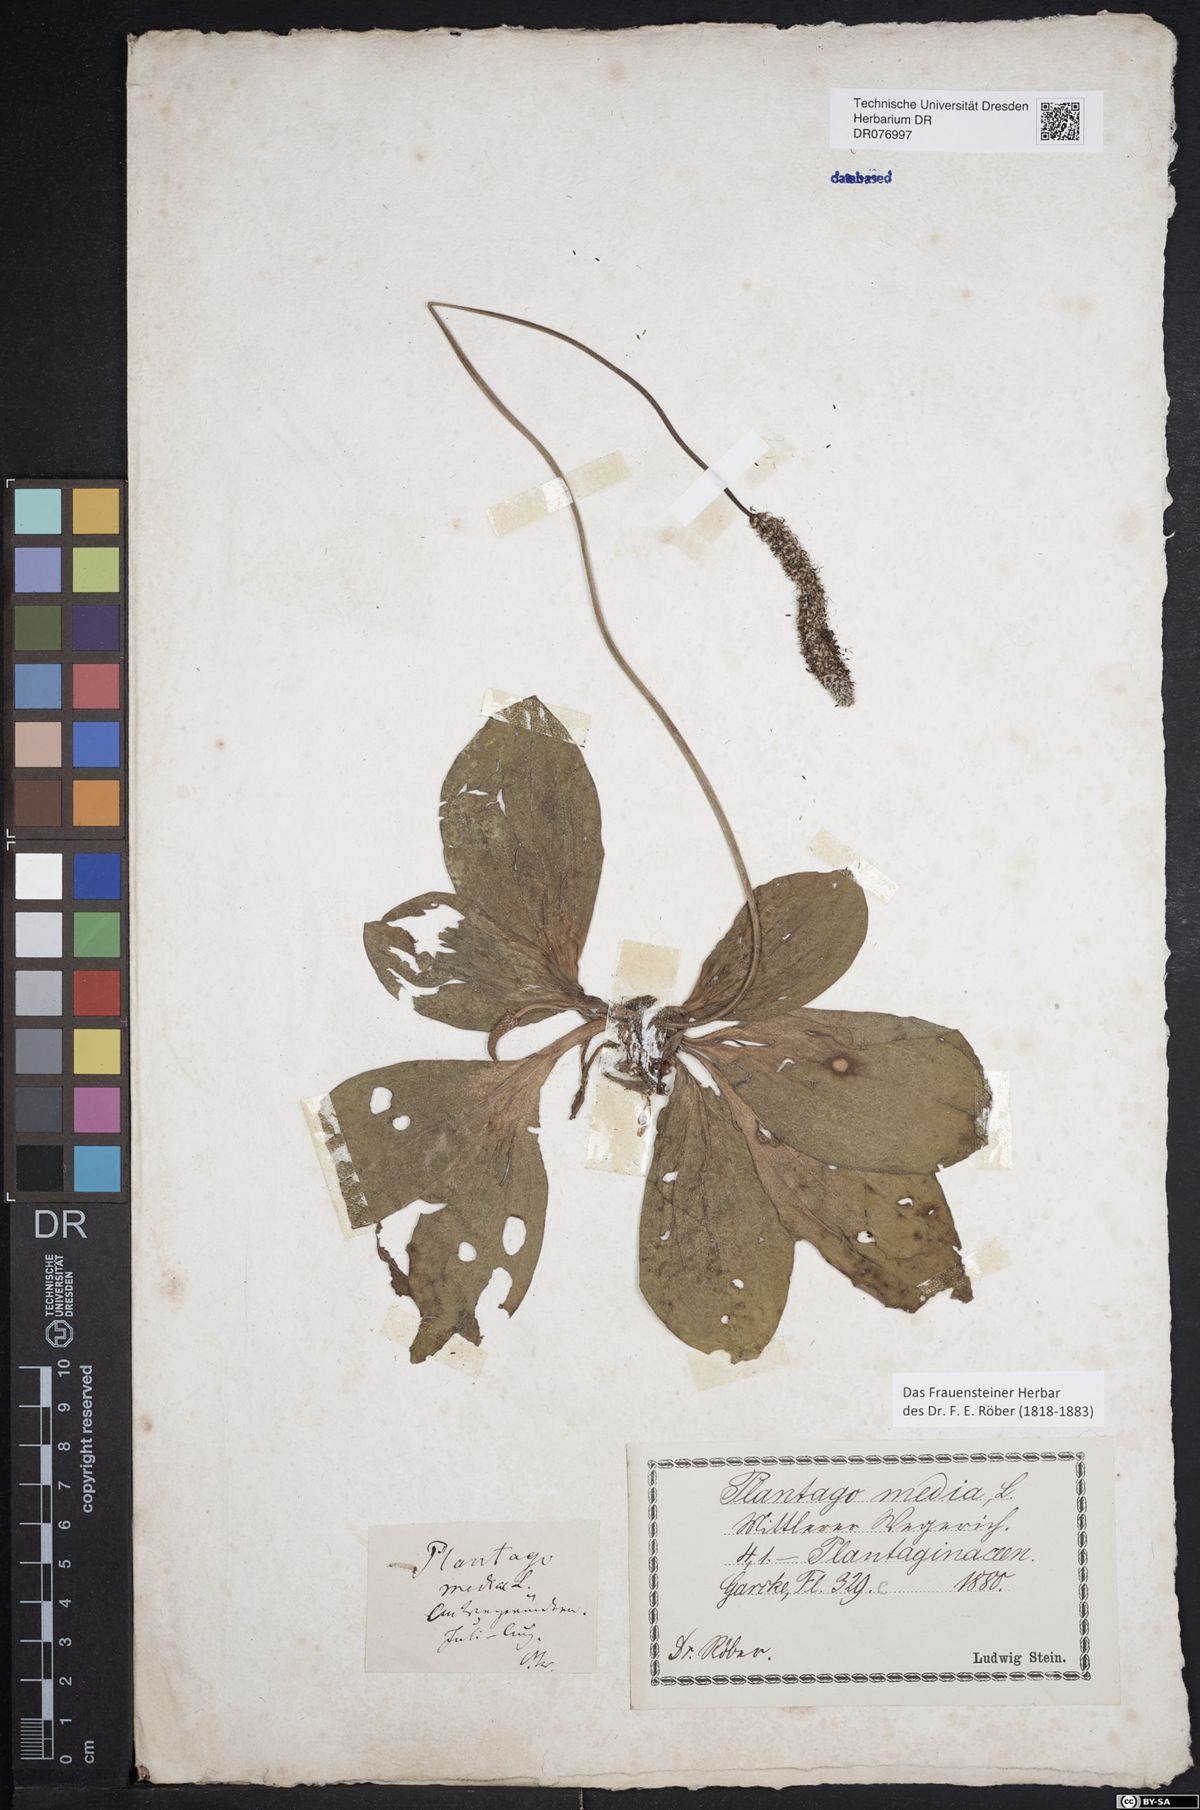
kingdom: Plantae
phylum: Tracheophyta
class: Magnoliopsida
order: Lamiales
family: Plantaginaceae
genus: Plantago
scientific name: Plantago media
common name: Hoary plantain
